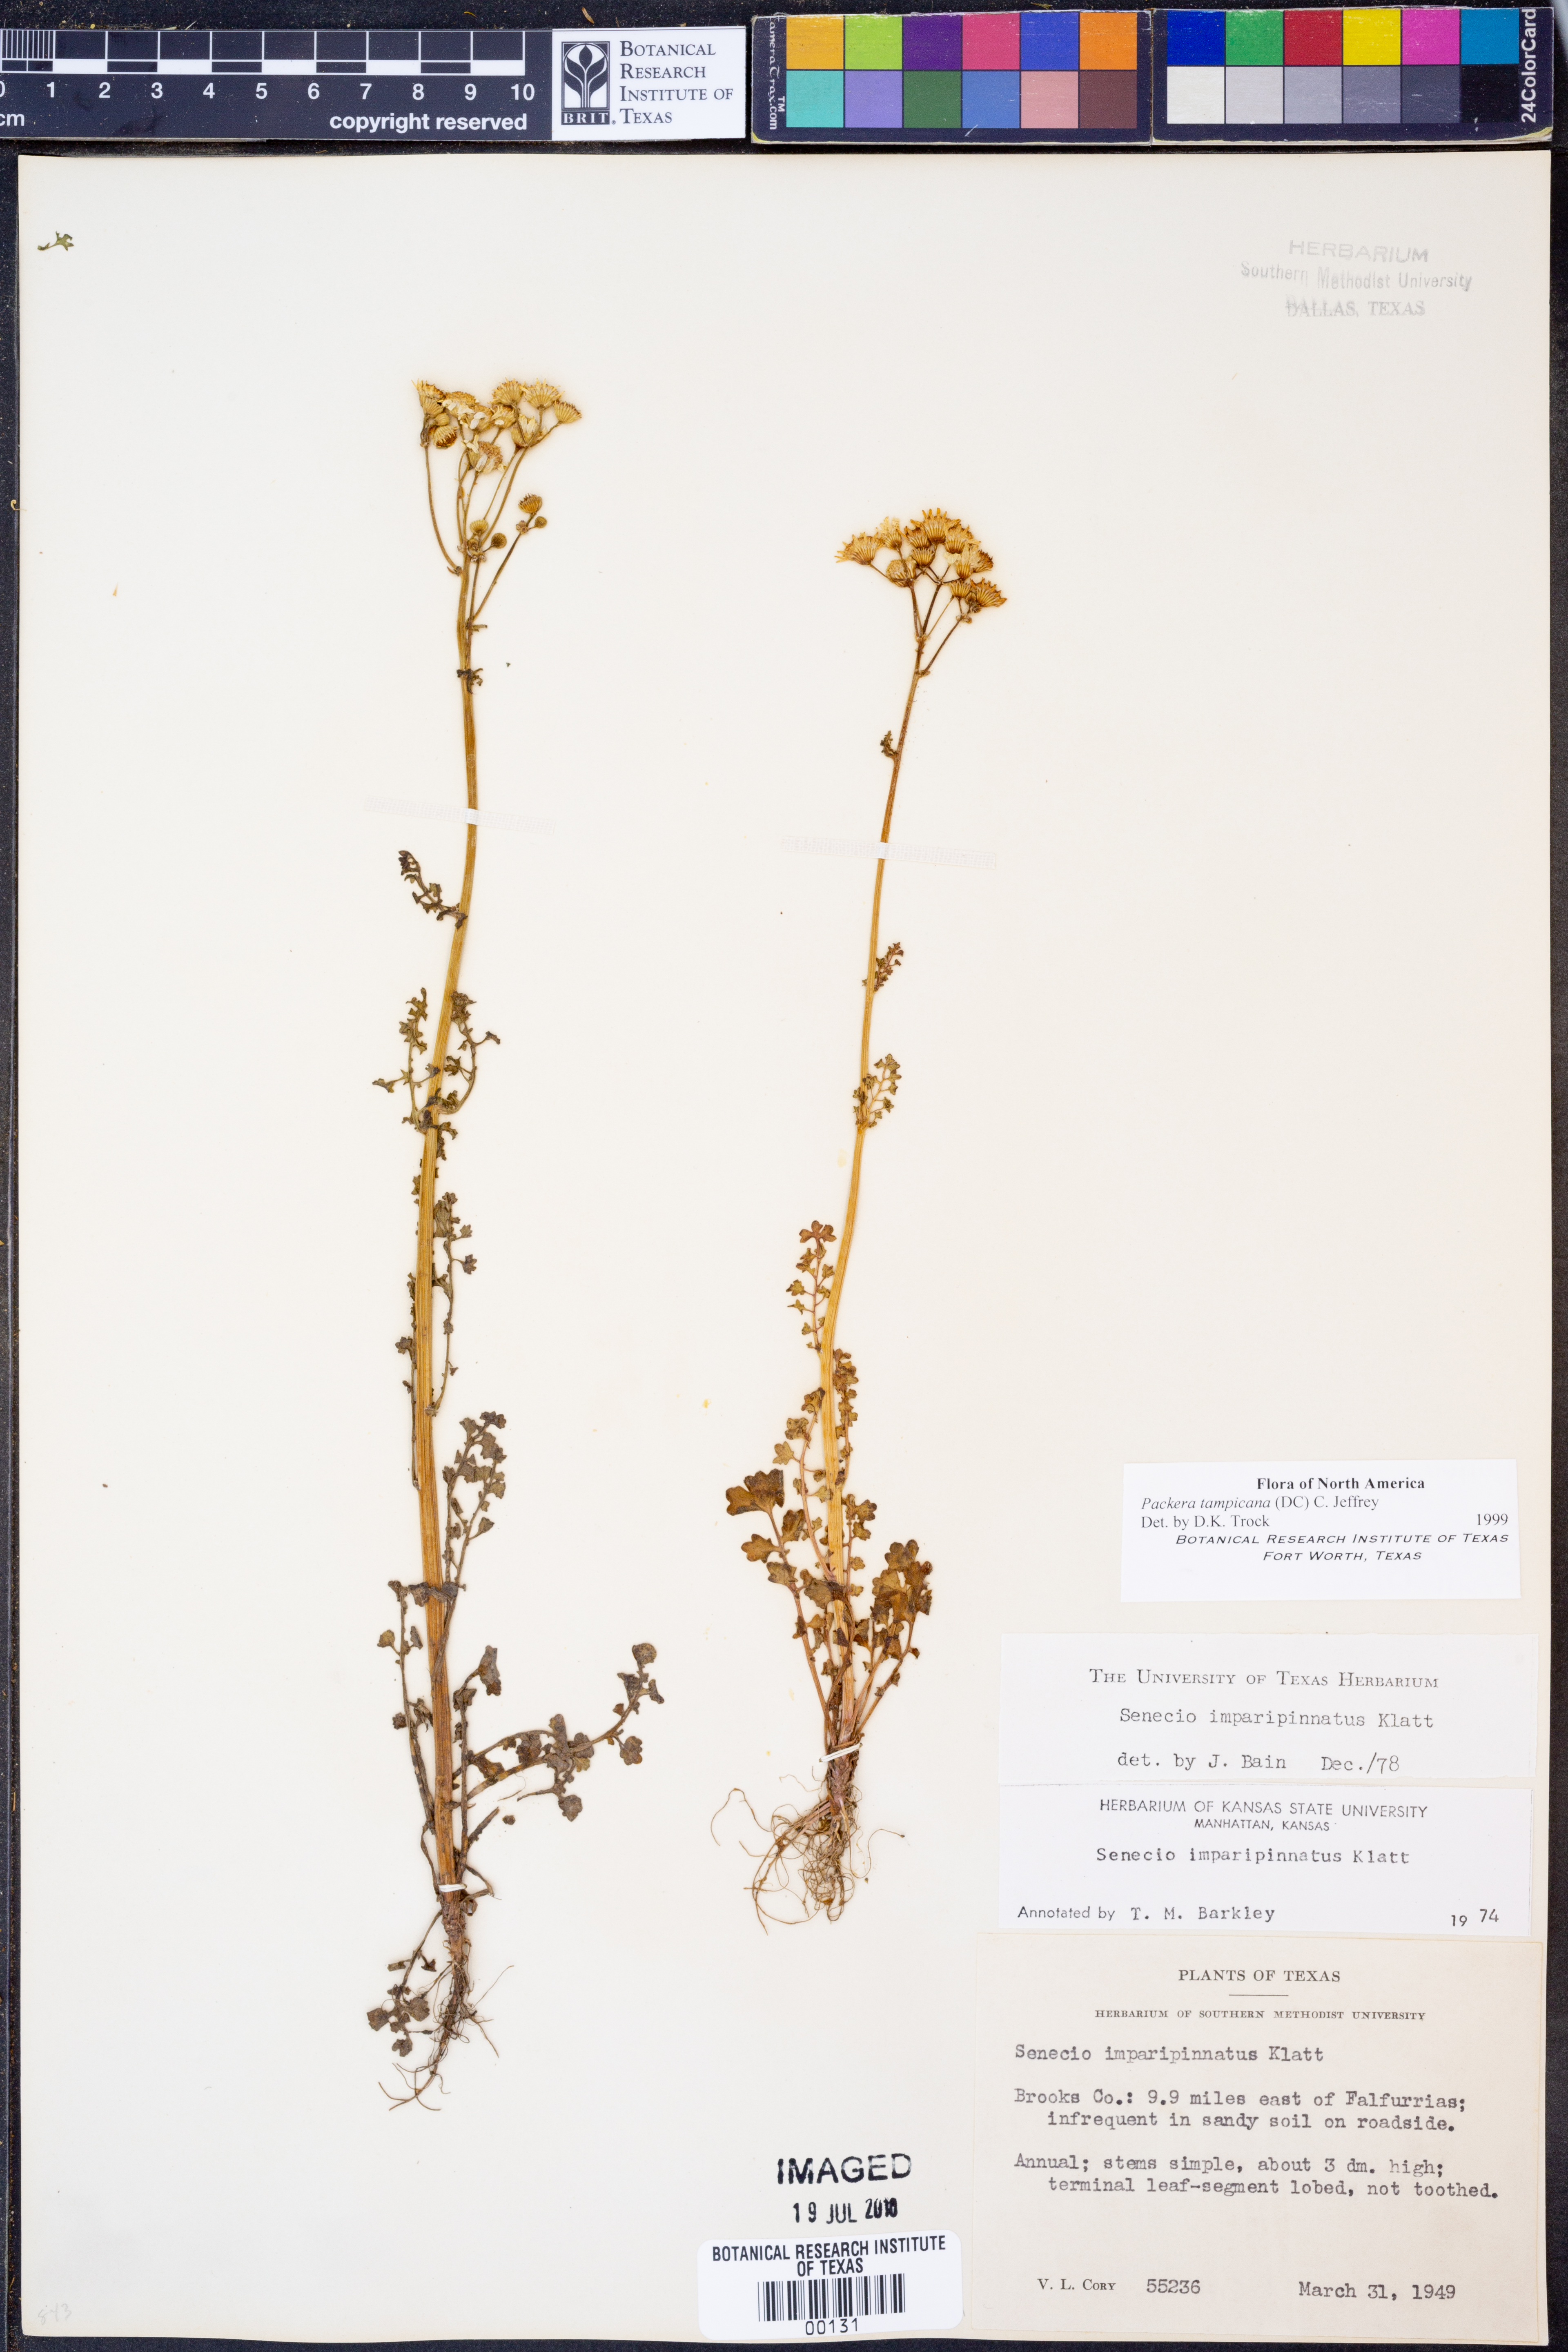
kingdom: Plantae
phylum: Tracheophyta
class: Magnoliopsida
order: Asterales
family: Asteraceae
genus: Packera
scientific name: Packera tampicana
